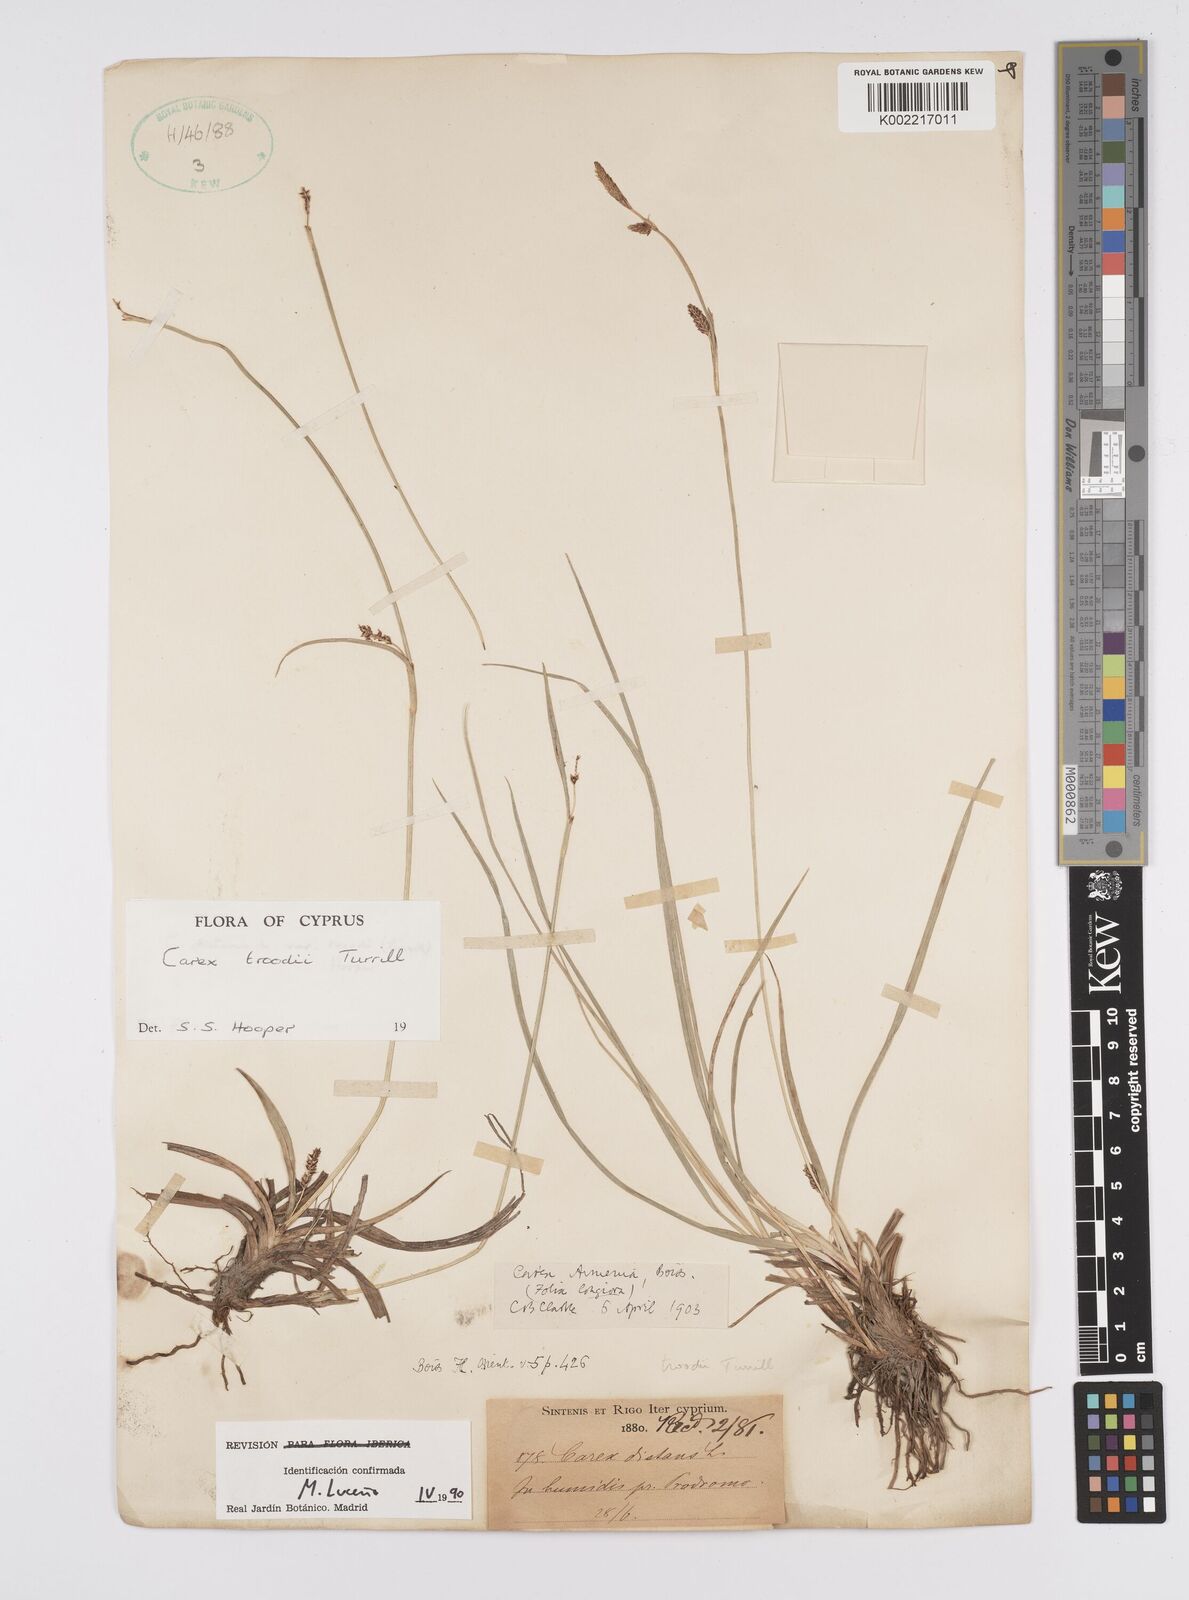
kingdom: Plantae
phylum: Tracheophyta
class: Liliopsida
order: Poales
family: Cyperaceae
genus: Carex
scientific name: Carex troodi
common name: Troodos mount sedge
